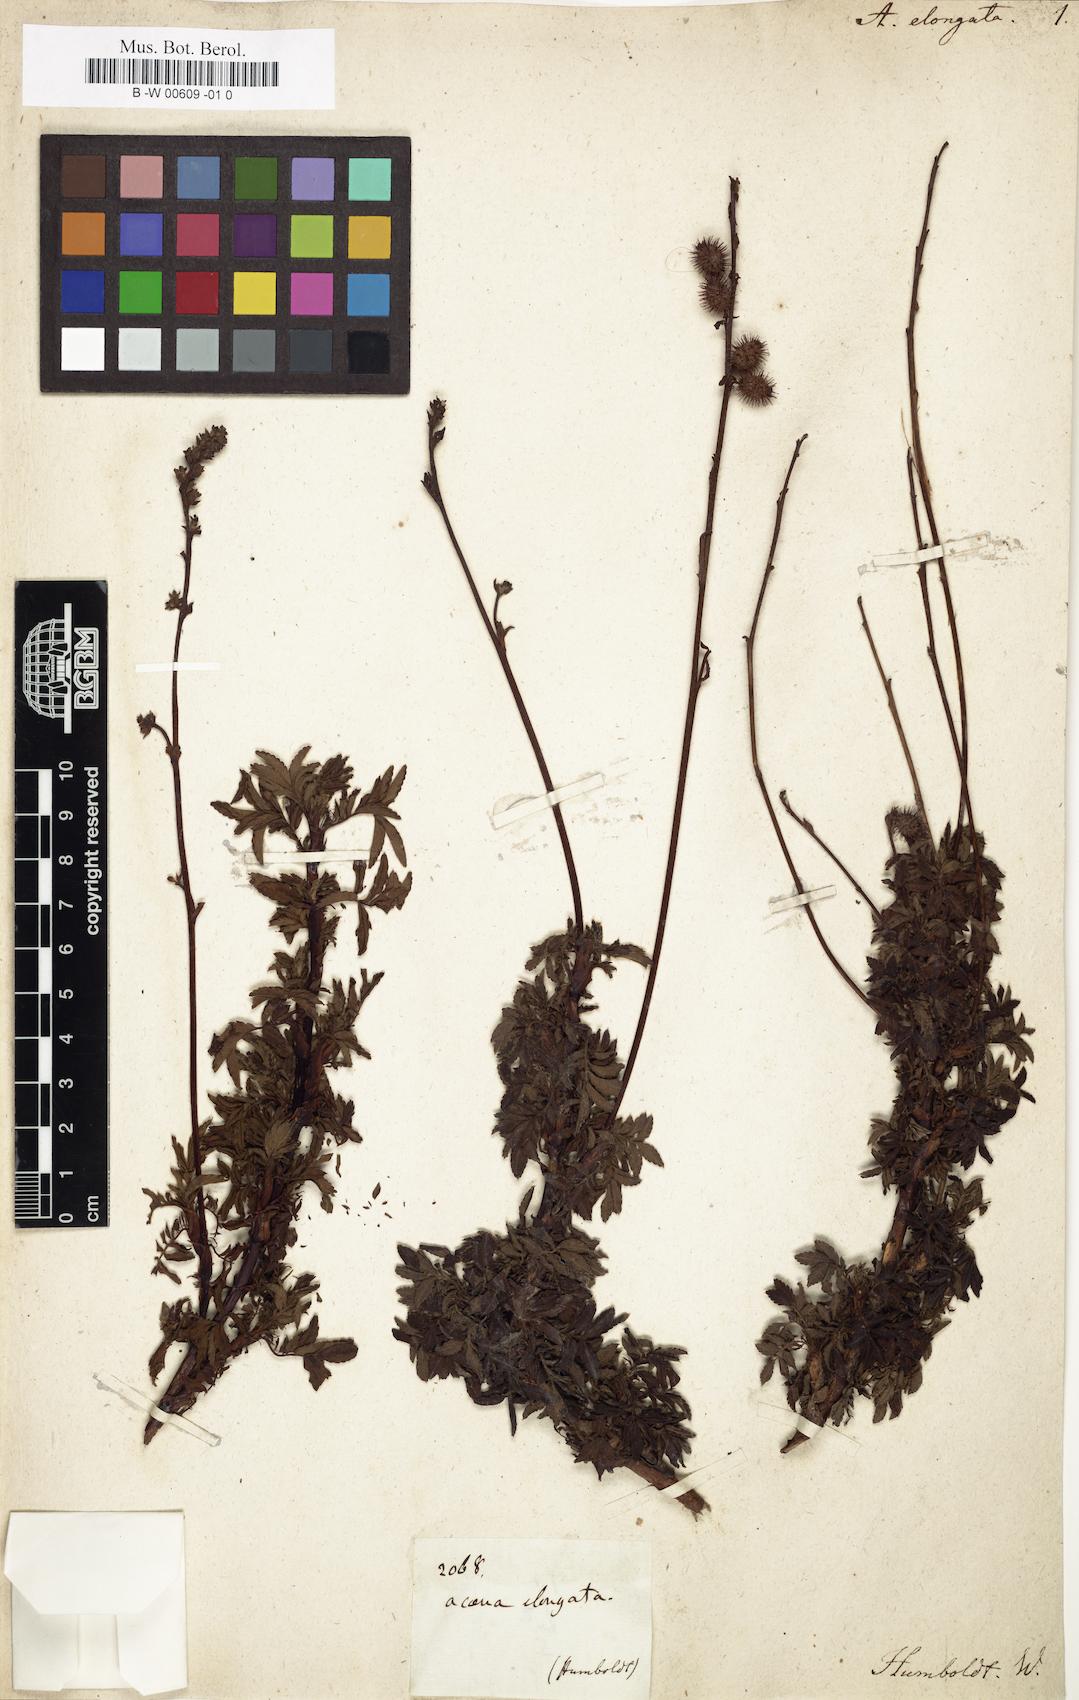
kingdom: Plantae
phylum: Tracheophyta
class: Magnoliopsida
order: Rosales
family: Rosaceae
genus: Acaena
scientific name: Acaena elongata
